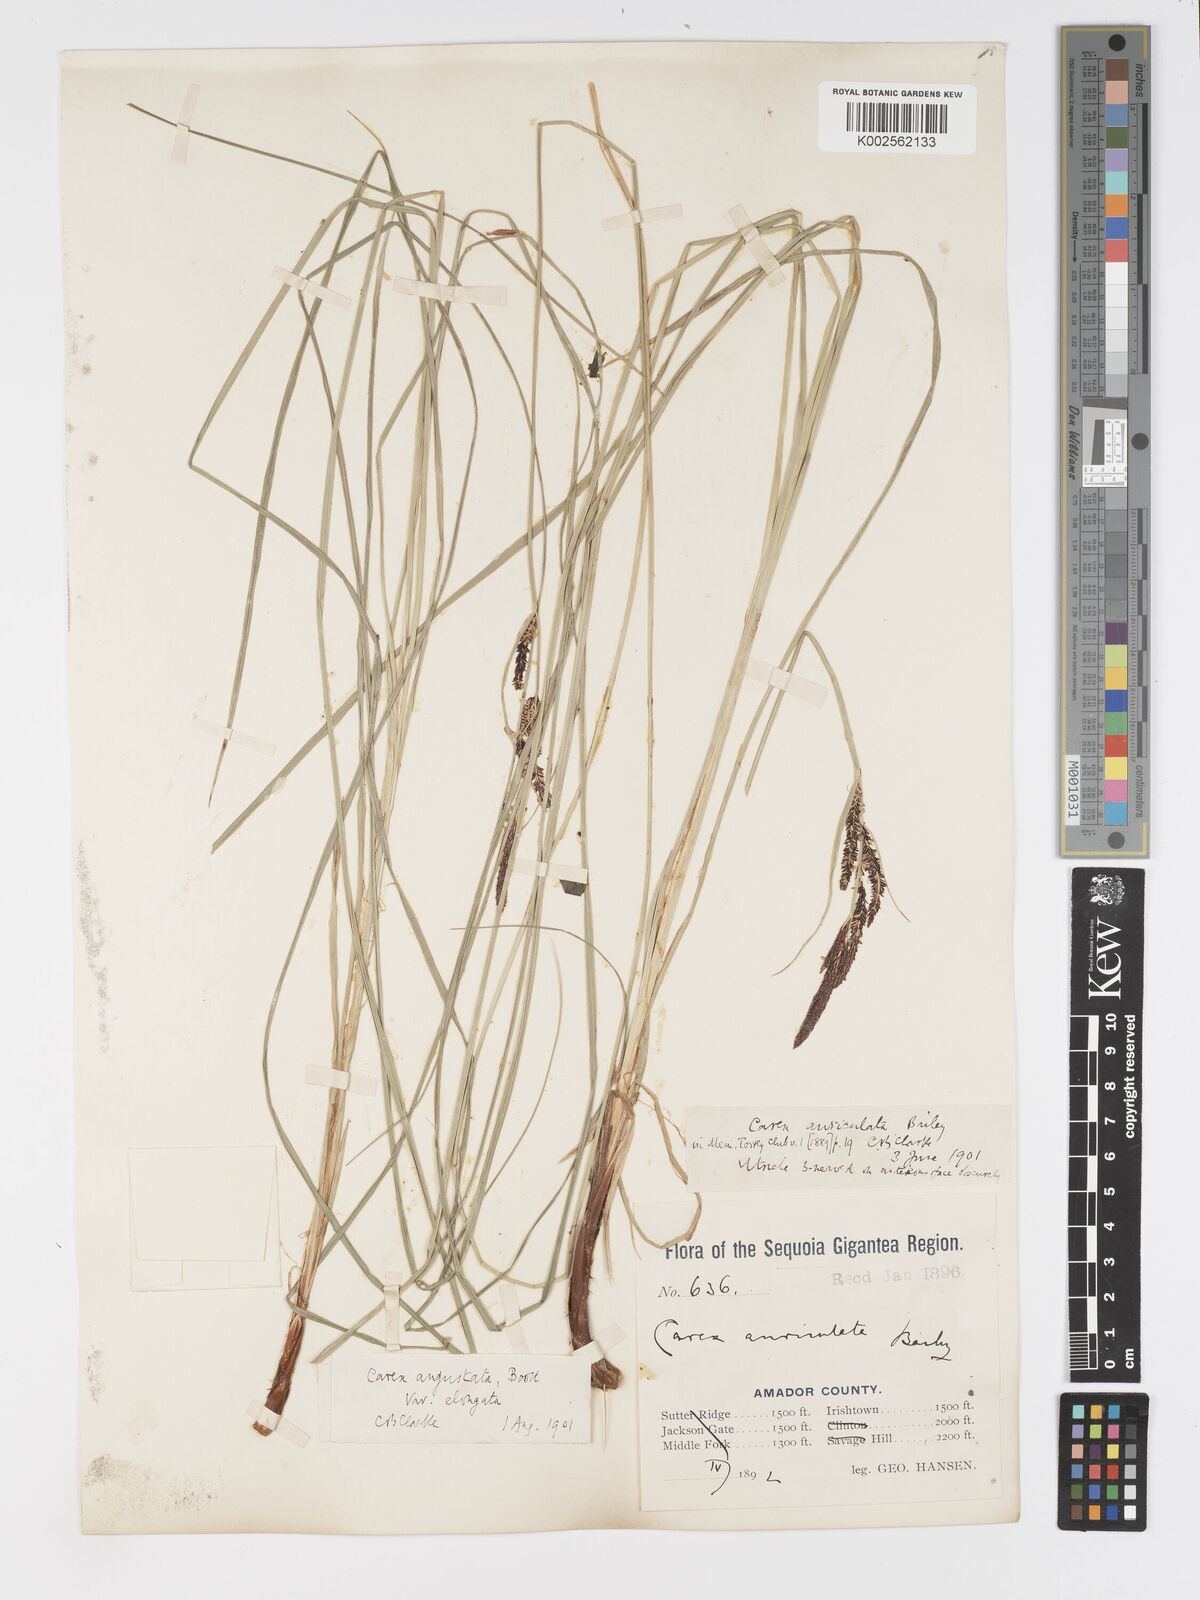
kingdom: Plantae
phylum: Tracheophyta
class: Liliopsida
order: Poales
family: Cyperaceae
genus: Carex
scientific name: Carex kelloggii
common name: Kellogg's sedge
